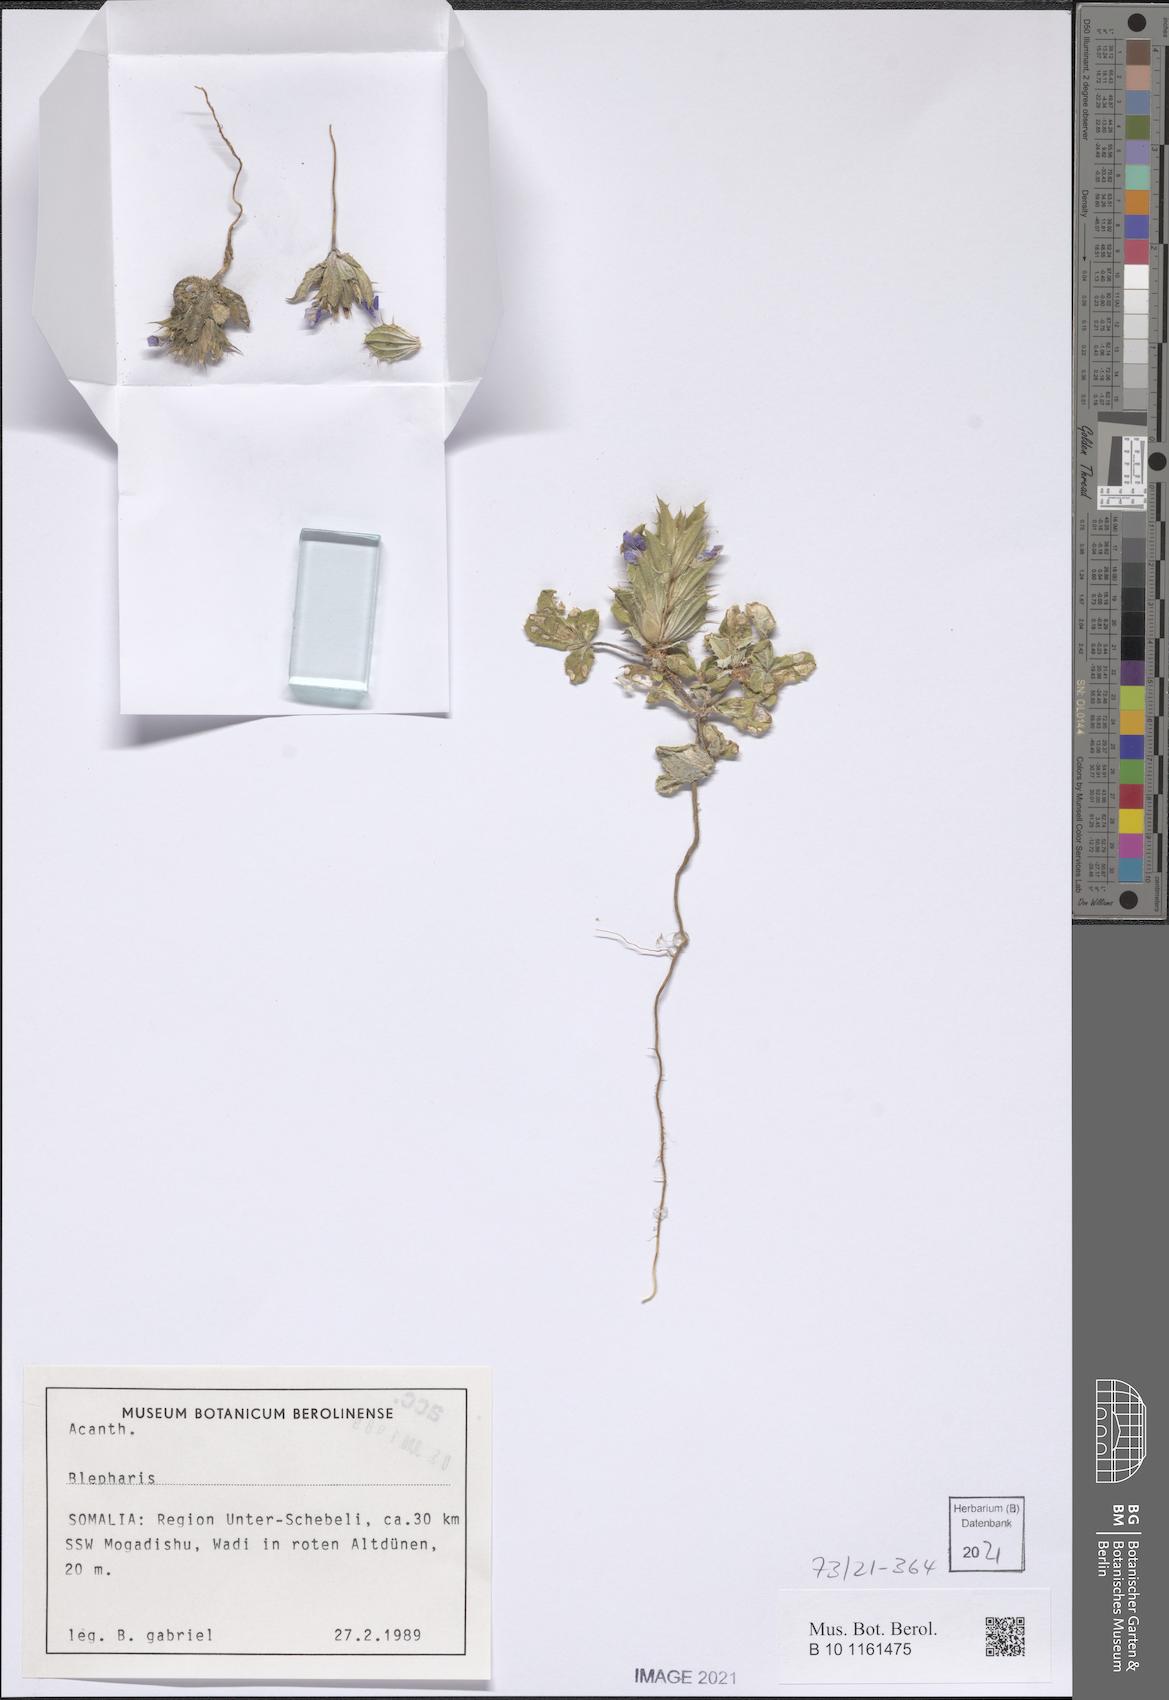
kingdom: Plantae
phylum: Tracheophyta
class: Magnoliopsida
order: Lamiales
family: Acanthaceae
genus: Blepharis
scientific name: Blepharis glinus
